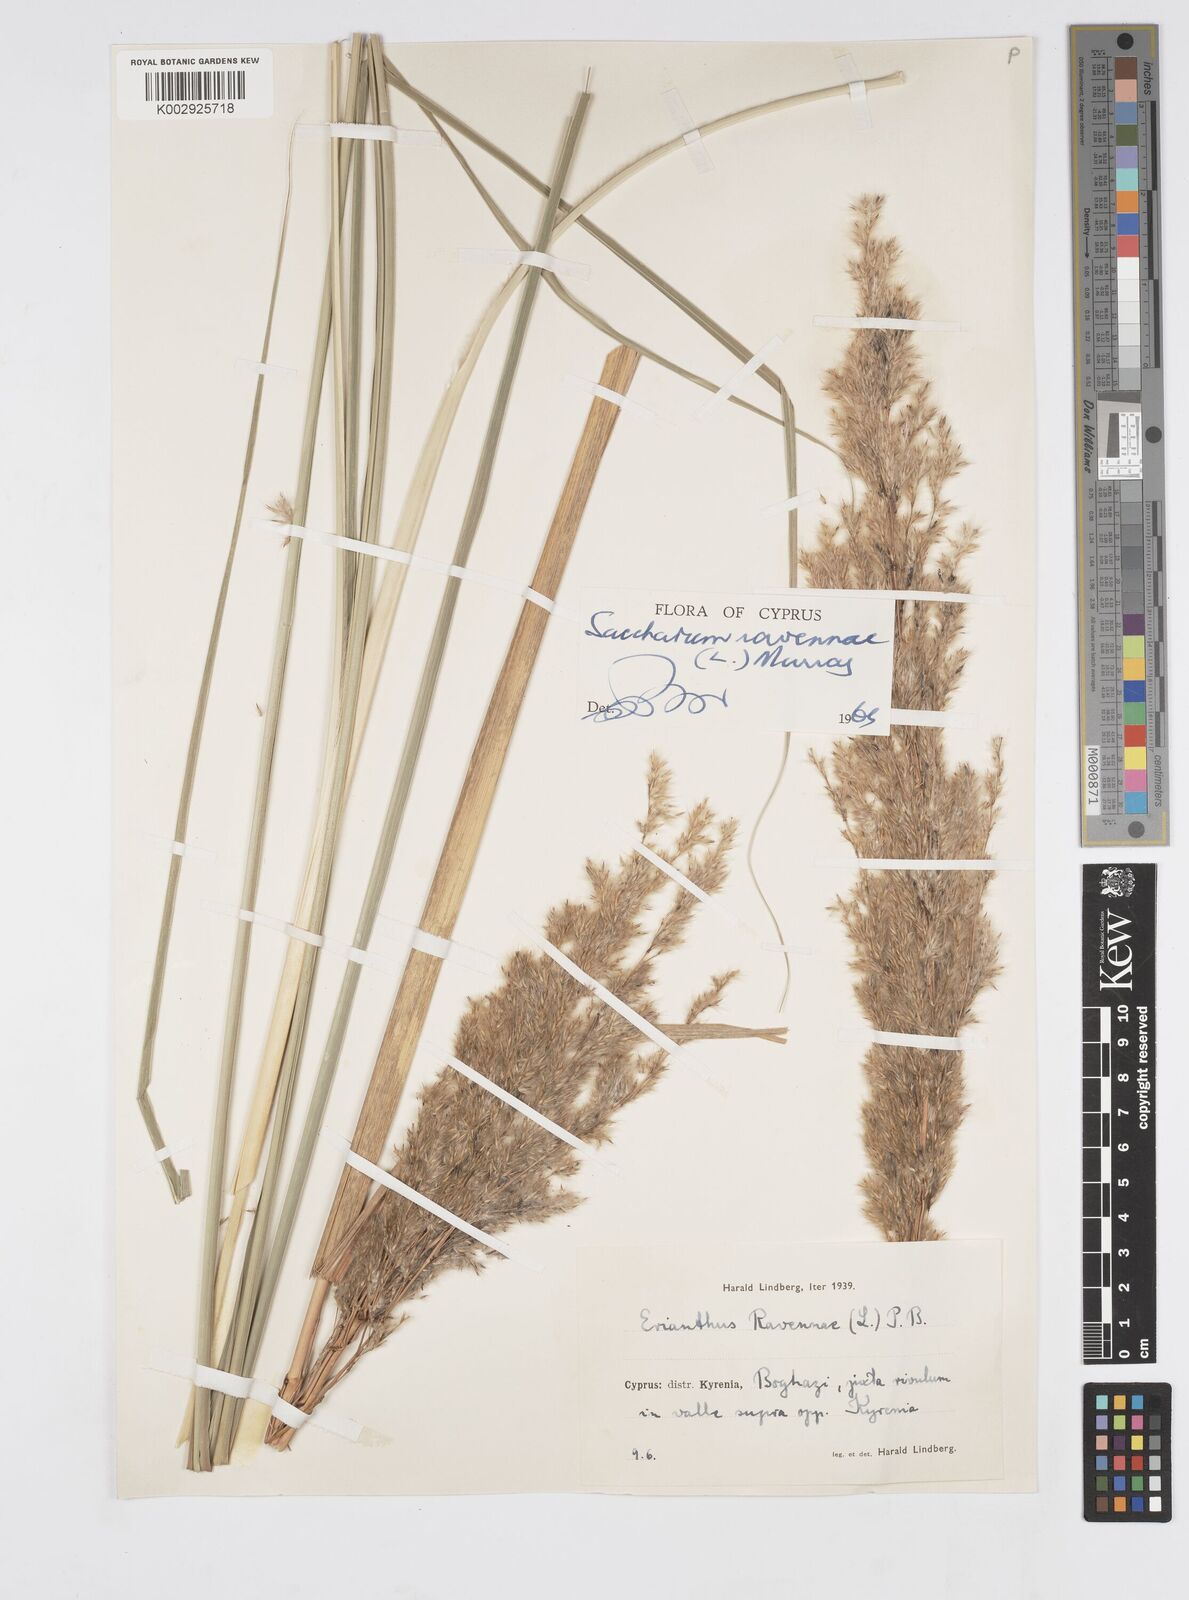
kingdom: Plantae
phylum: Tracheophyta
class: Liliopsida
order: Poales
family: Poaceae
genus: Tripidium
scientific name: Tripidium ravennae
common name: Ravenna grass
